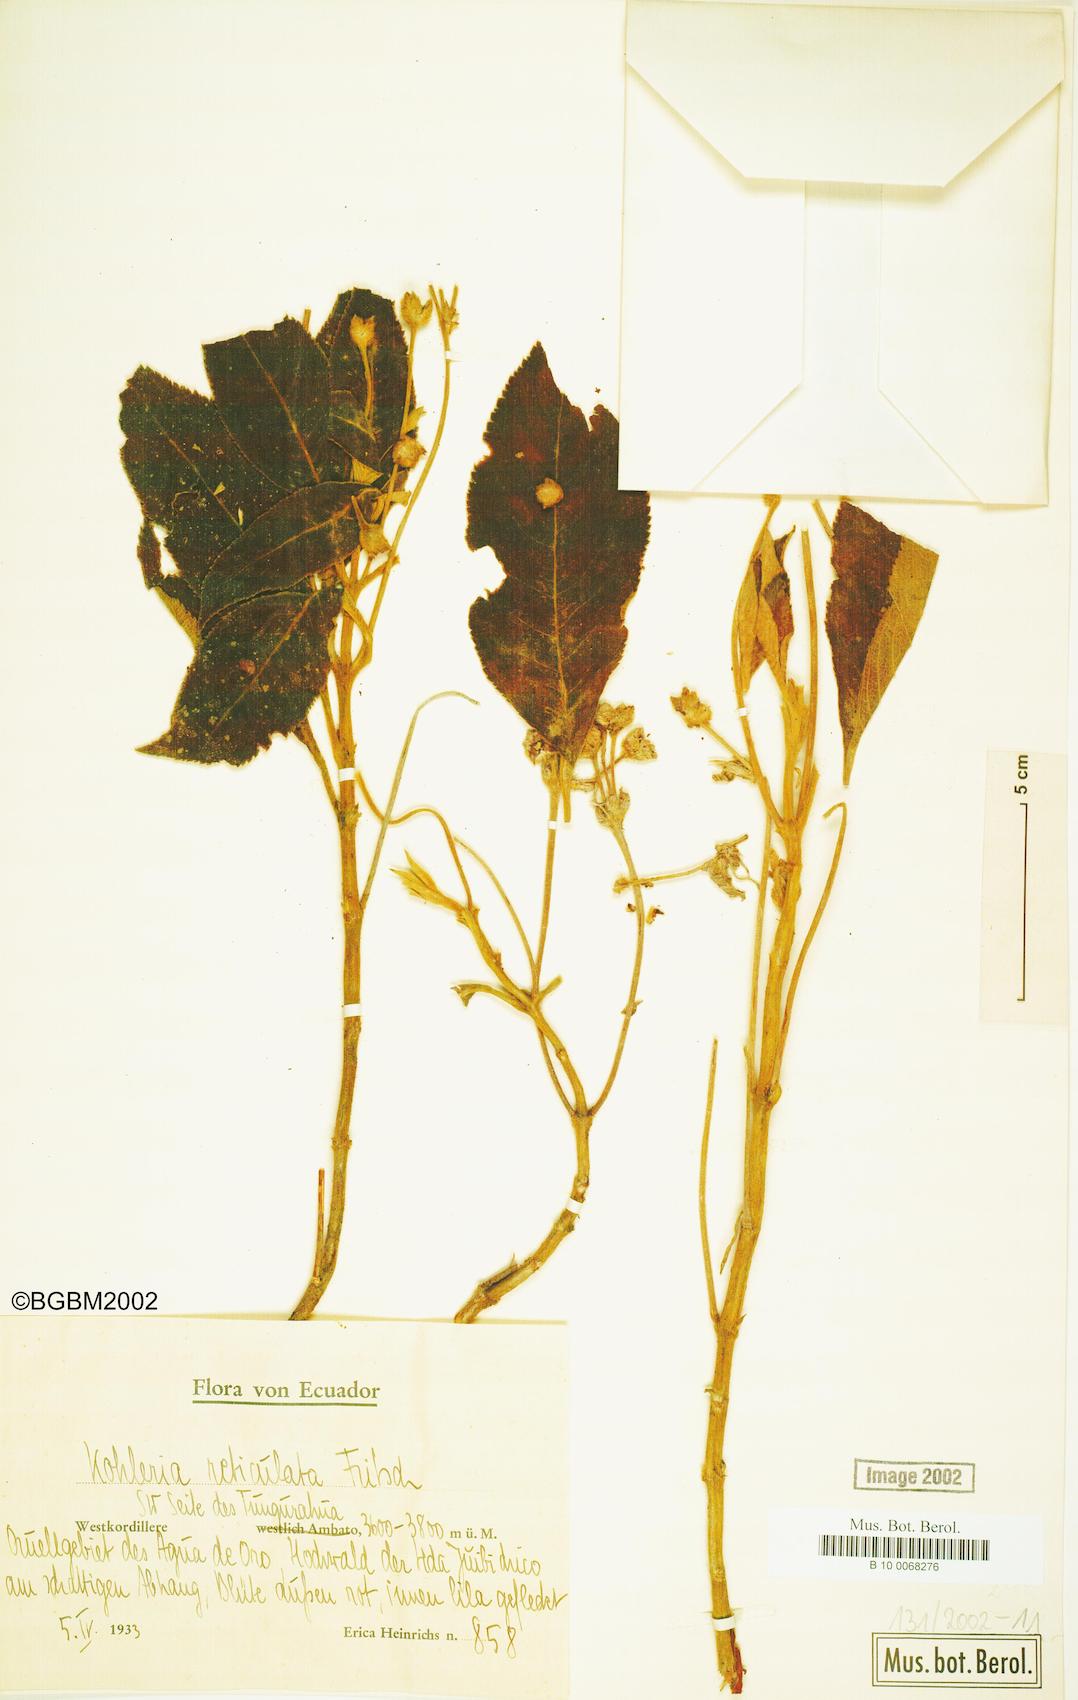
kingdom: Plantae
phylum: Tracheophyta
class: Magnoliopsida
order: Lamiales
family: Gesneriaceae
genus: Pearcea
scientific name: Pearcea reticulata
